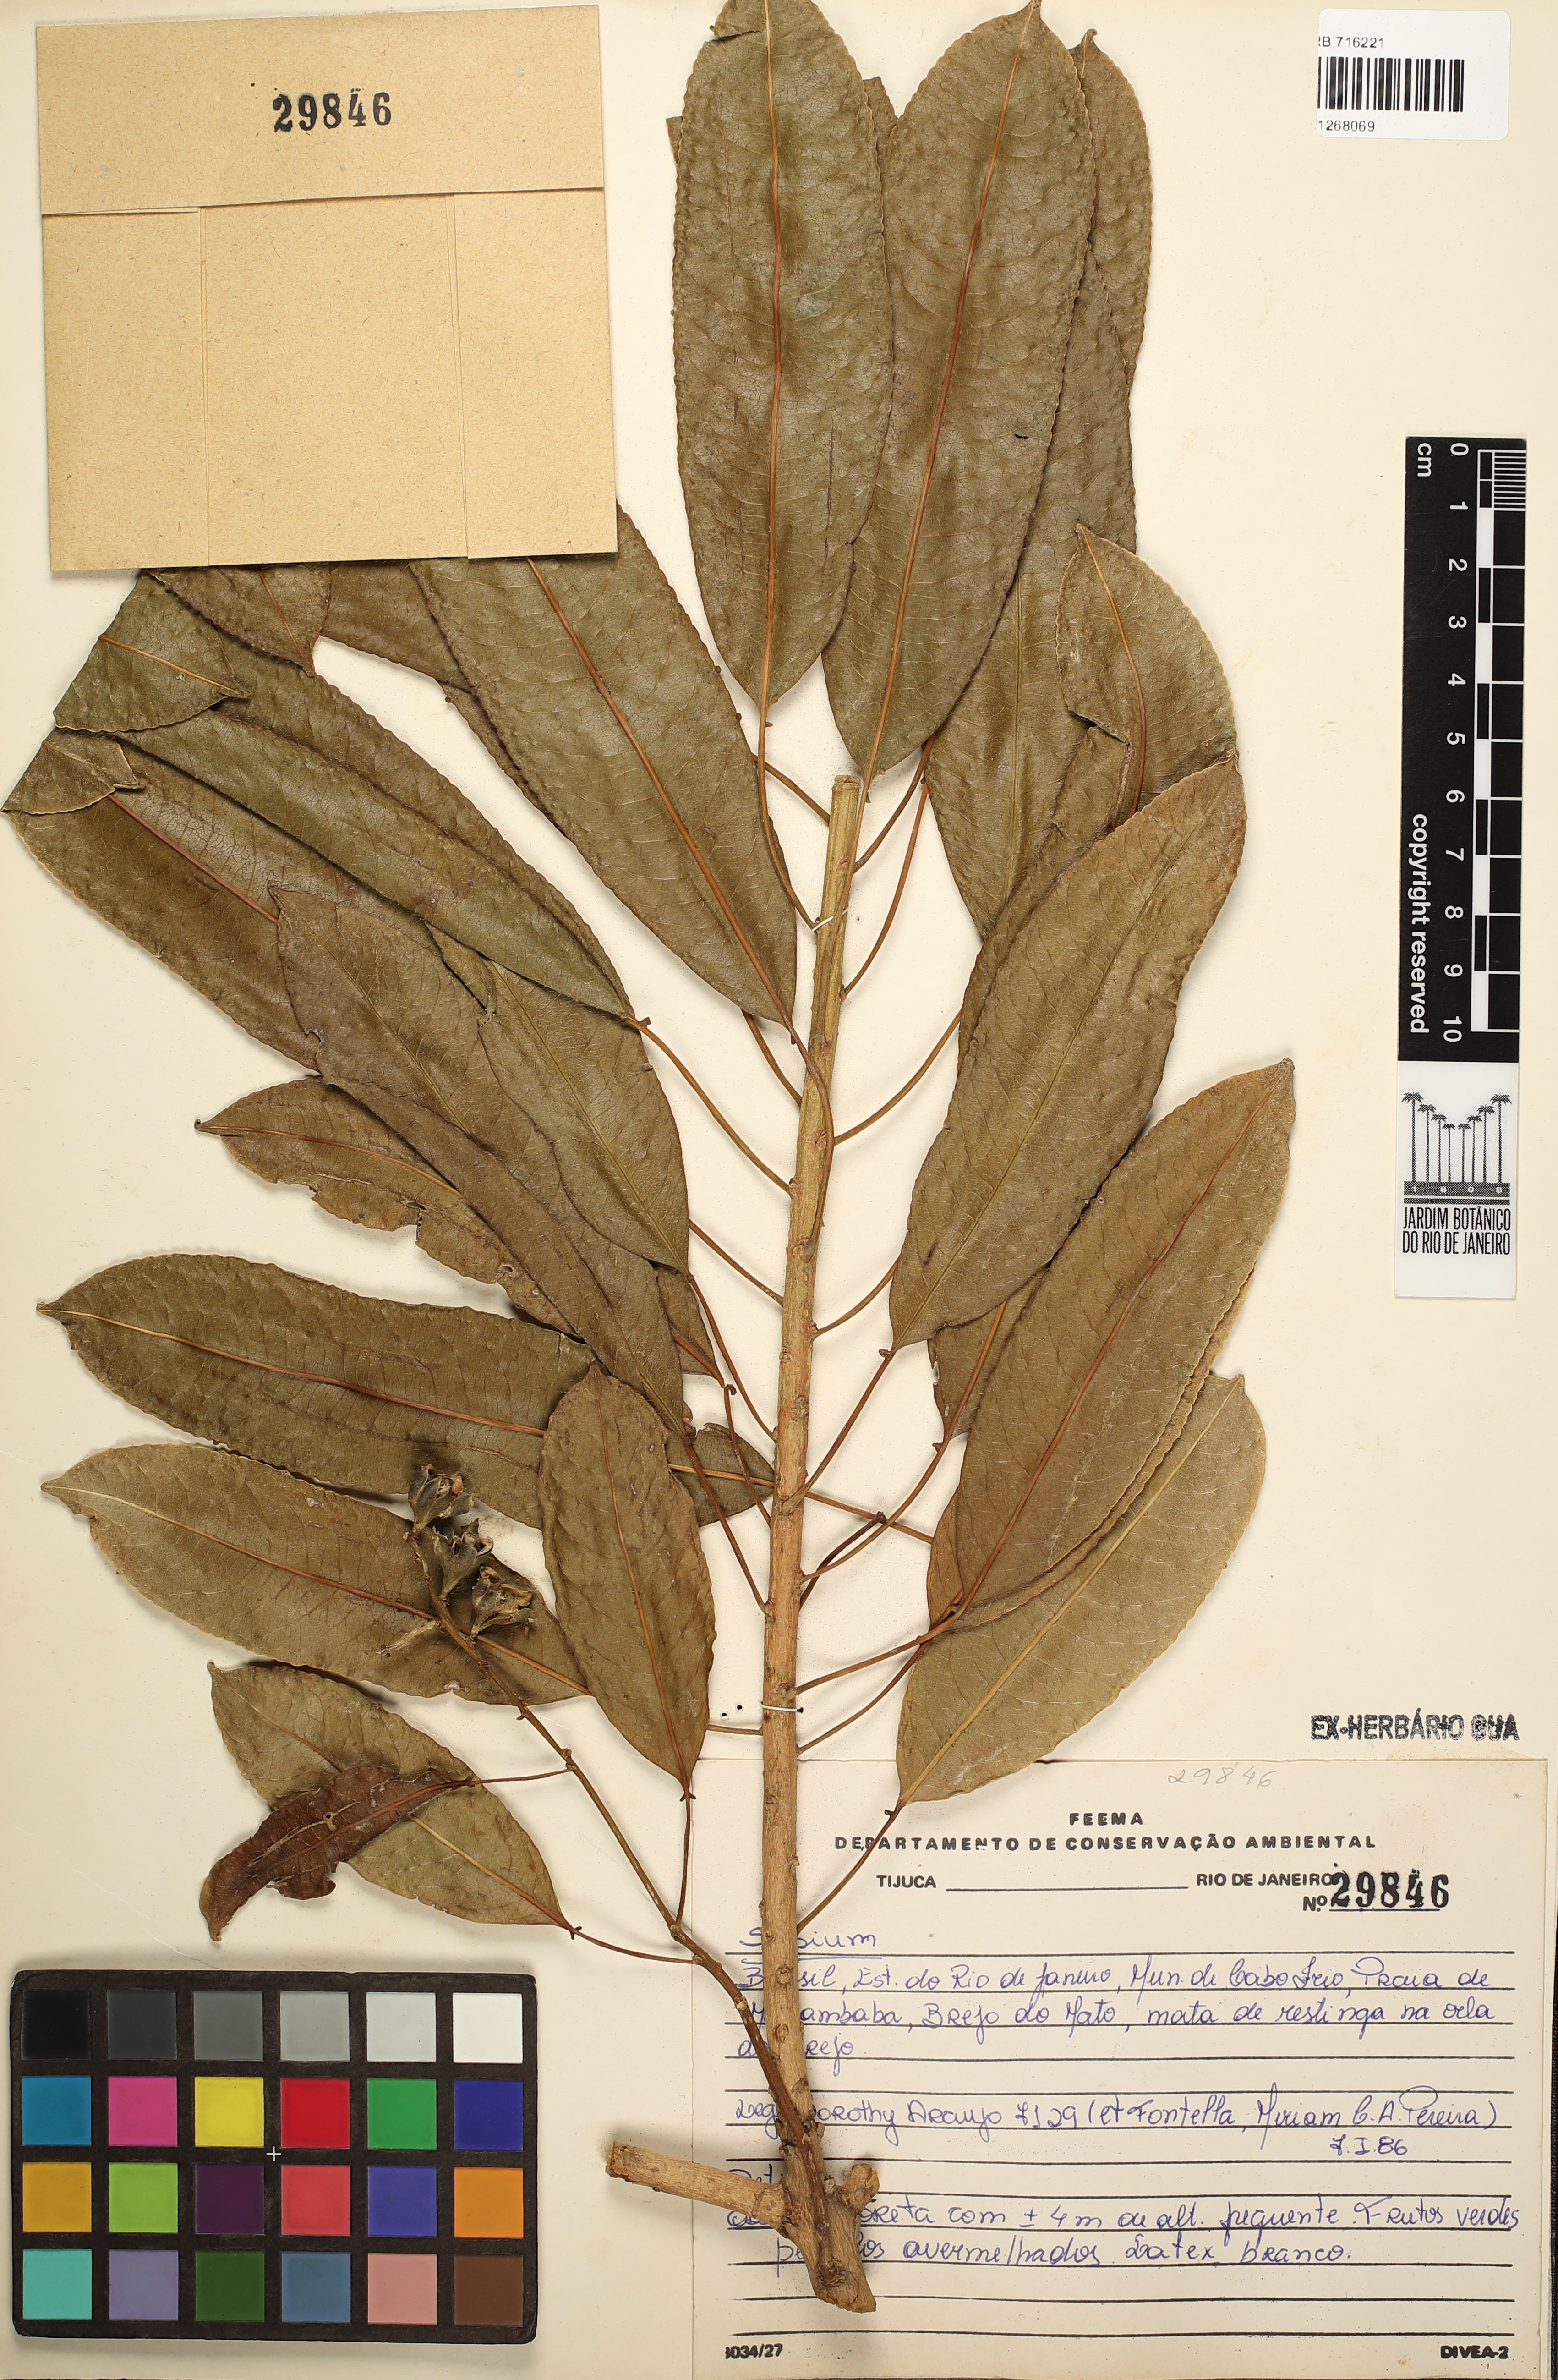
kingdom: Plantae
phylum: Tracheophyta
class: Magnoliopsida
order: Malpighiales
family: Euphorbiaceae
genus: Sapium
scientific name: Sapium
